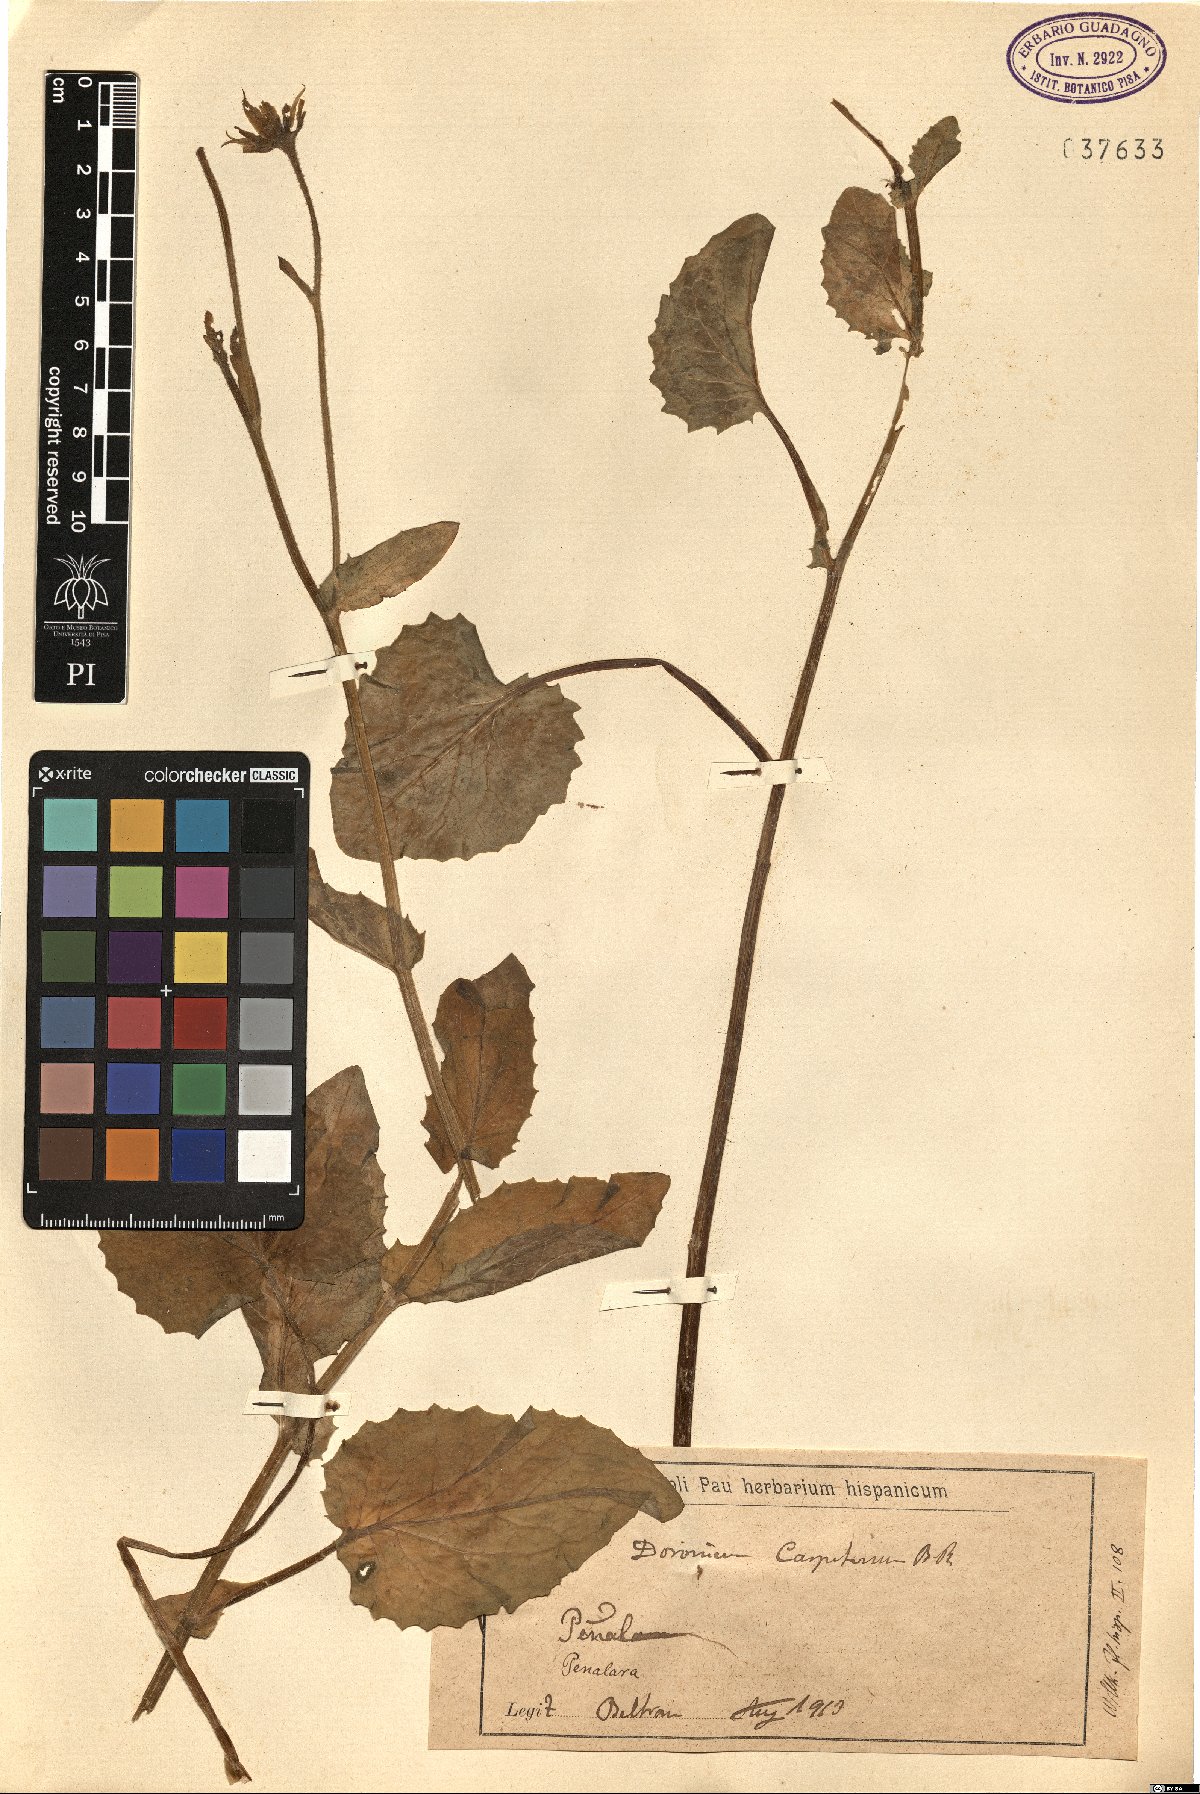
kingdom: Plantae
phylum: Tracheophyta
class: Magnoliopsida
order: Asterales
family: Asteraceae
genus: Doronicum
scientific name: Doronicum carpetanum
